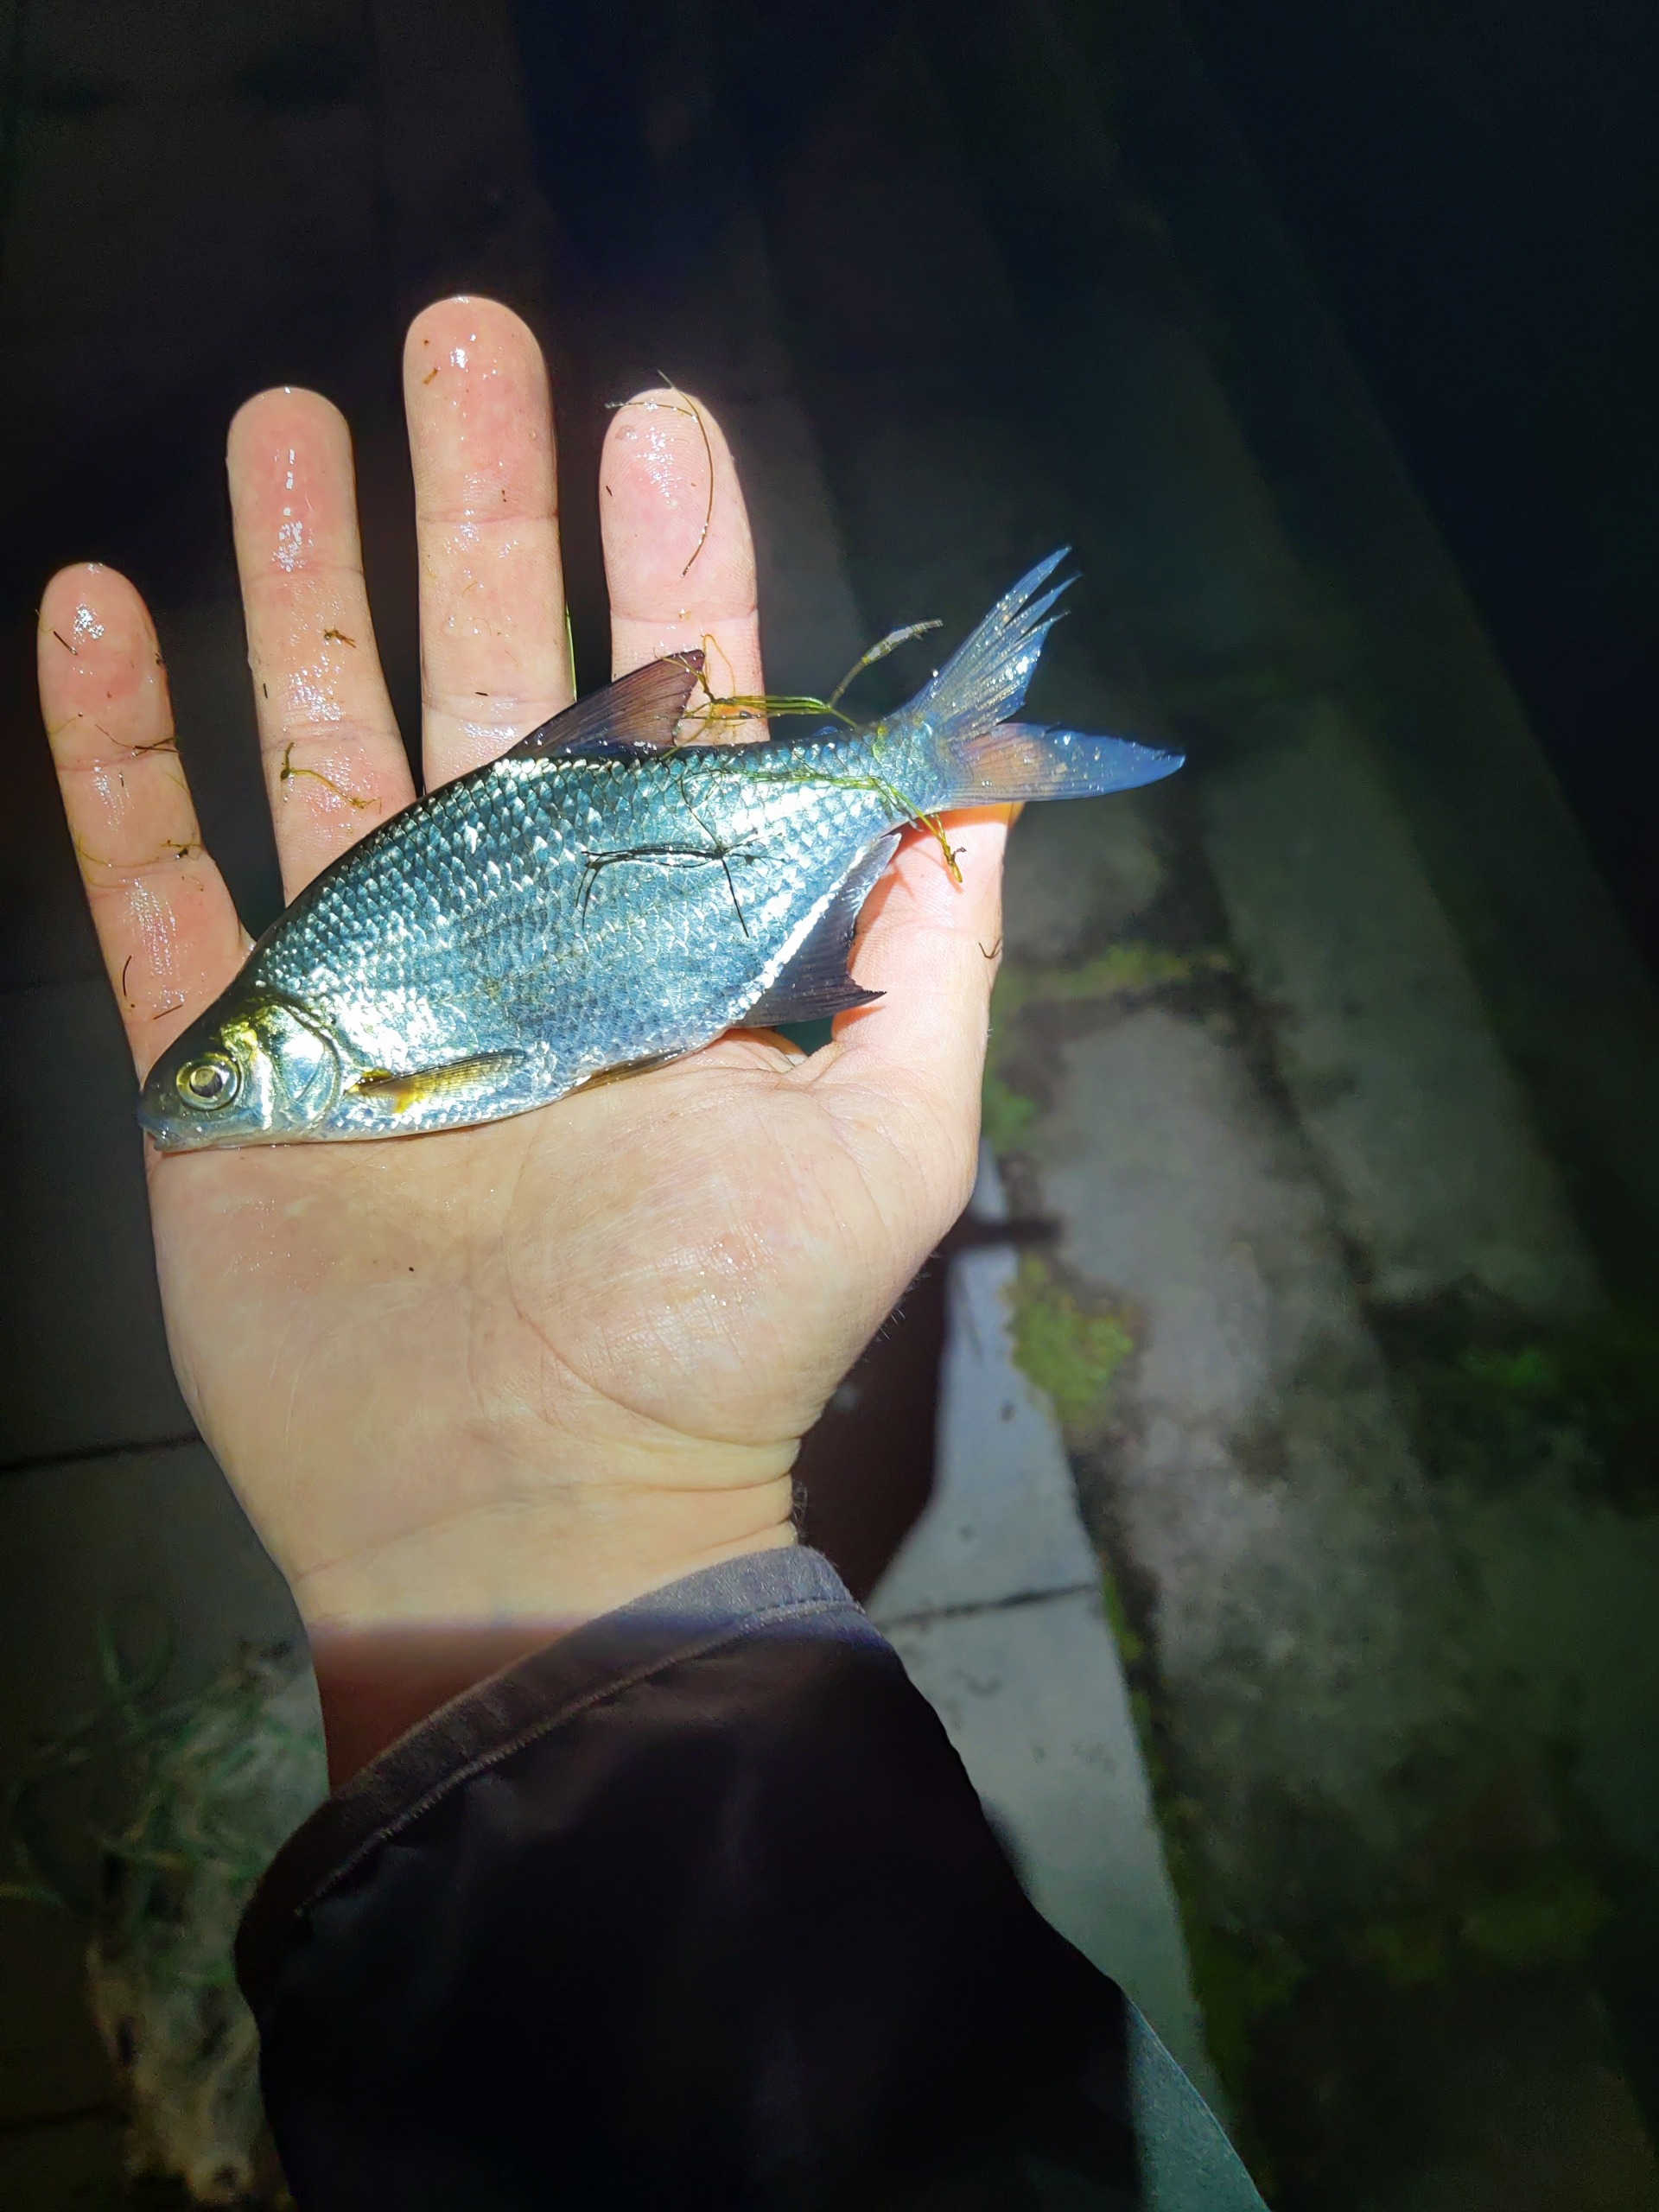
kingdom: Animalia
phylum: Chordata
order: Cypriniformes
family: Cyprinidae
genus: Blicca
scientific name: Blicca bjoerkna
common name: Flire
